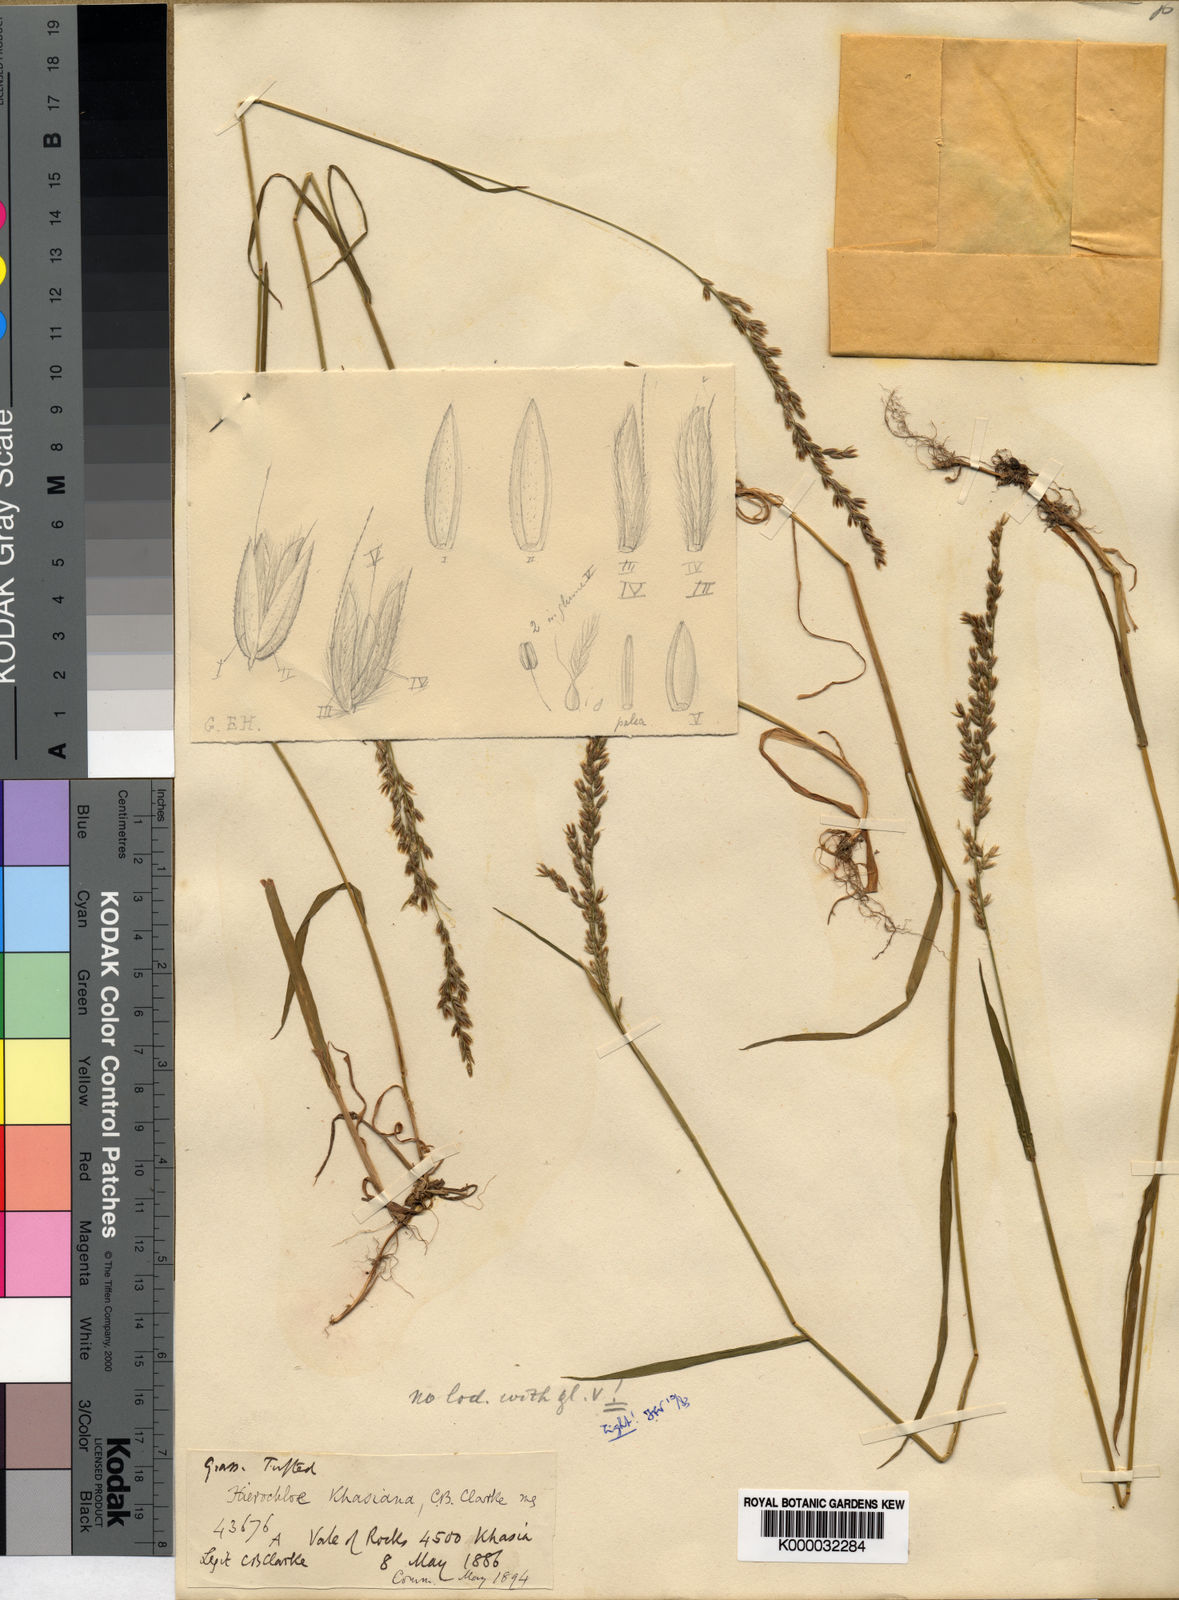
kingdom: Plantae
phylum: Tracheophyta
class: Liliopsida
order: Poales
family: Poaceae
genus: Hierochloe
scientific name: Hierochloe
